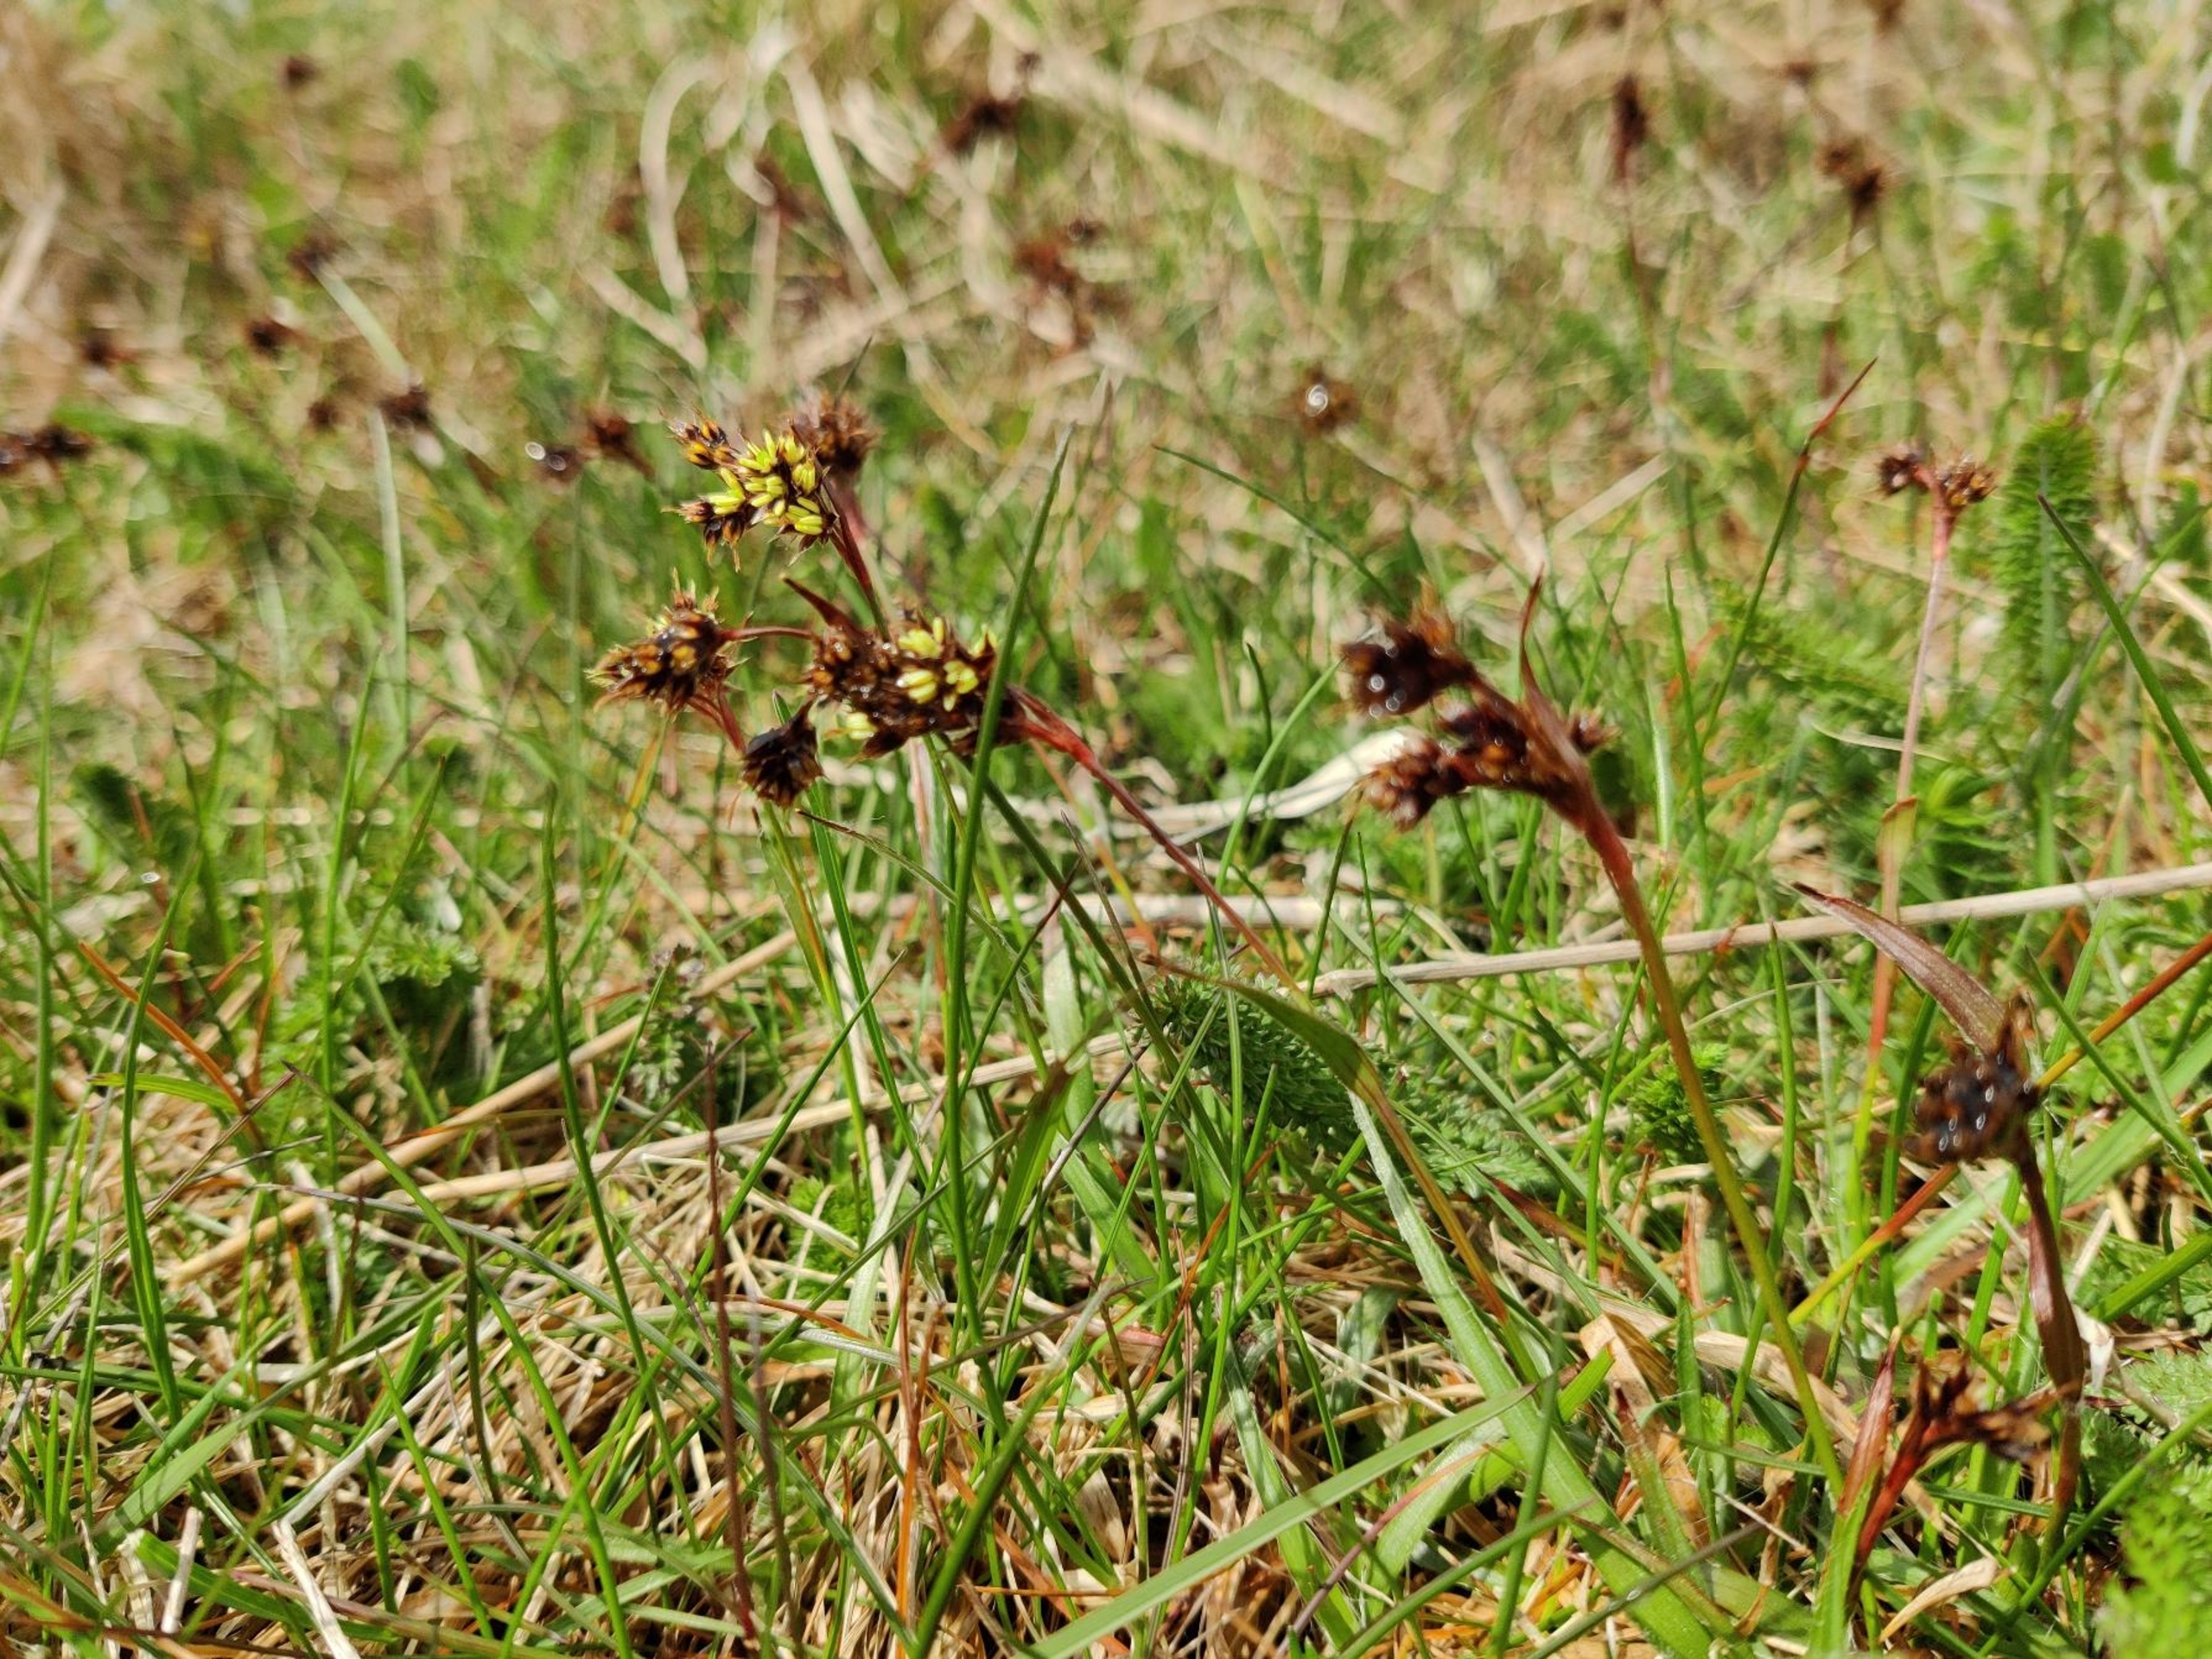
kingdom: Plantae
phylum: Tracheophyta
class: Liliopsida
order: Poales
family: Juncaceae
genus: Luzula
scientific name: Luzula campestris
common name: Mark-frytle
